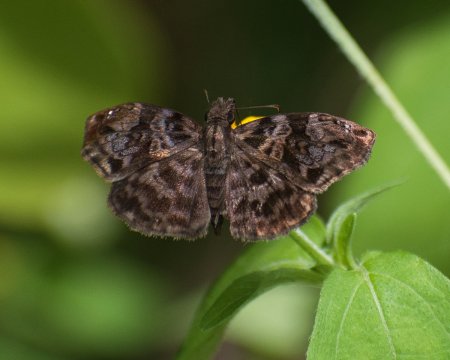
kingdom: Animalia
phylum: Arthropoda
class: Insecta
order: Lepidoptera
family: Hesperiidae
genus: Gorgythion
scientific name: Gorgythion begga
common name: Variegated Skipper
